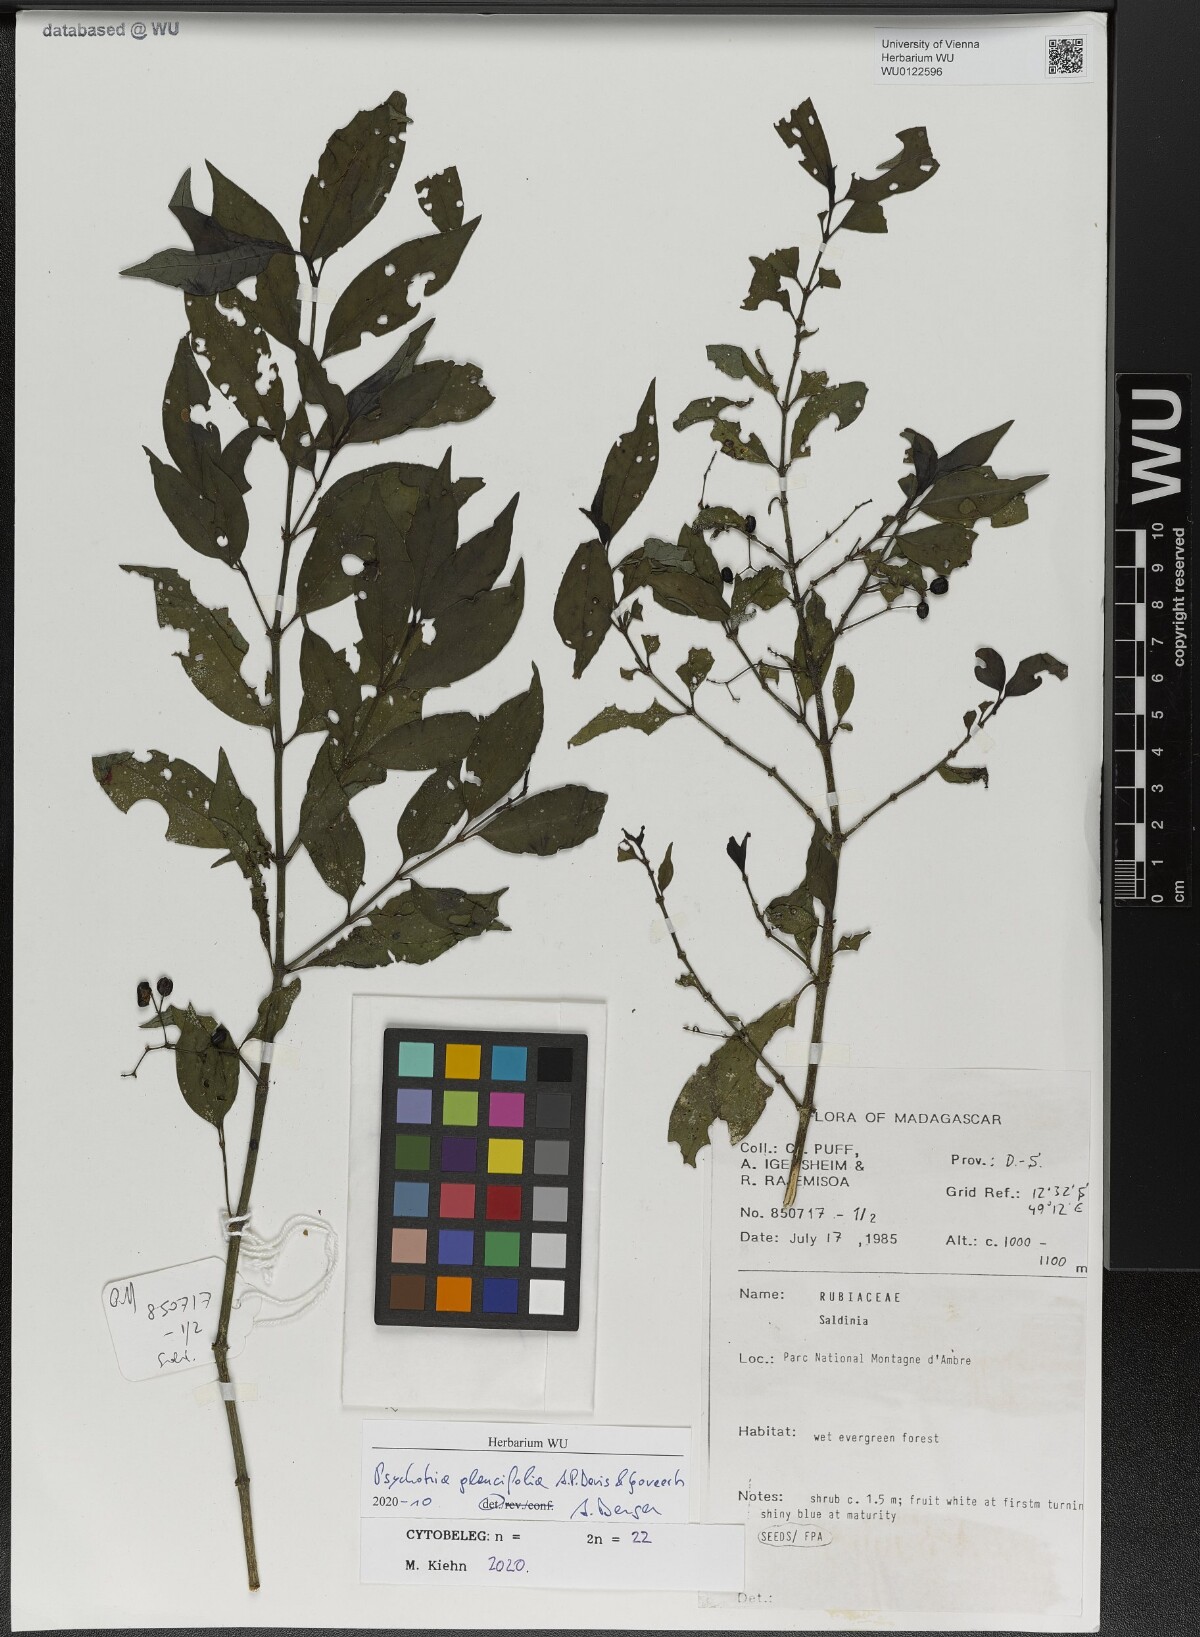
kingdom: Plantae
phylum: Tracheophyta
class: Magnoliopsida
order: Gentianales
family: Rubiaceae
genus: Psychotria
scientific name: Psychotria glaucifolia
